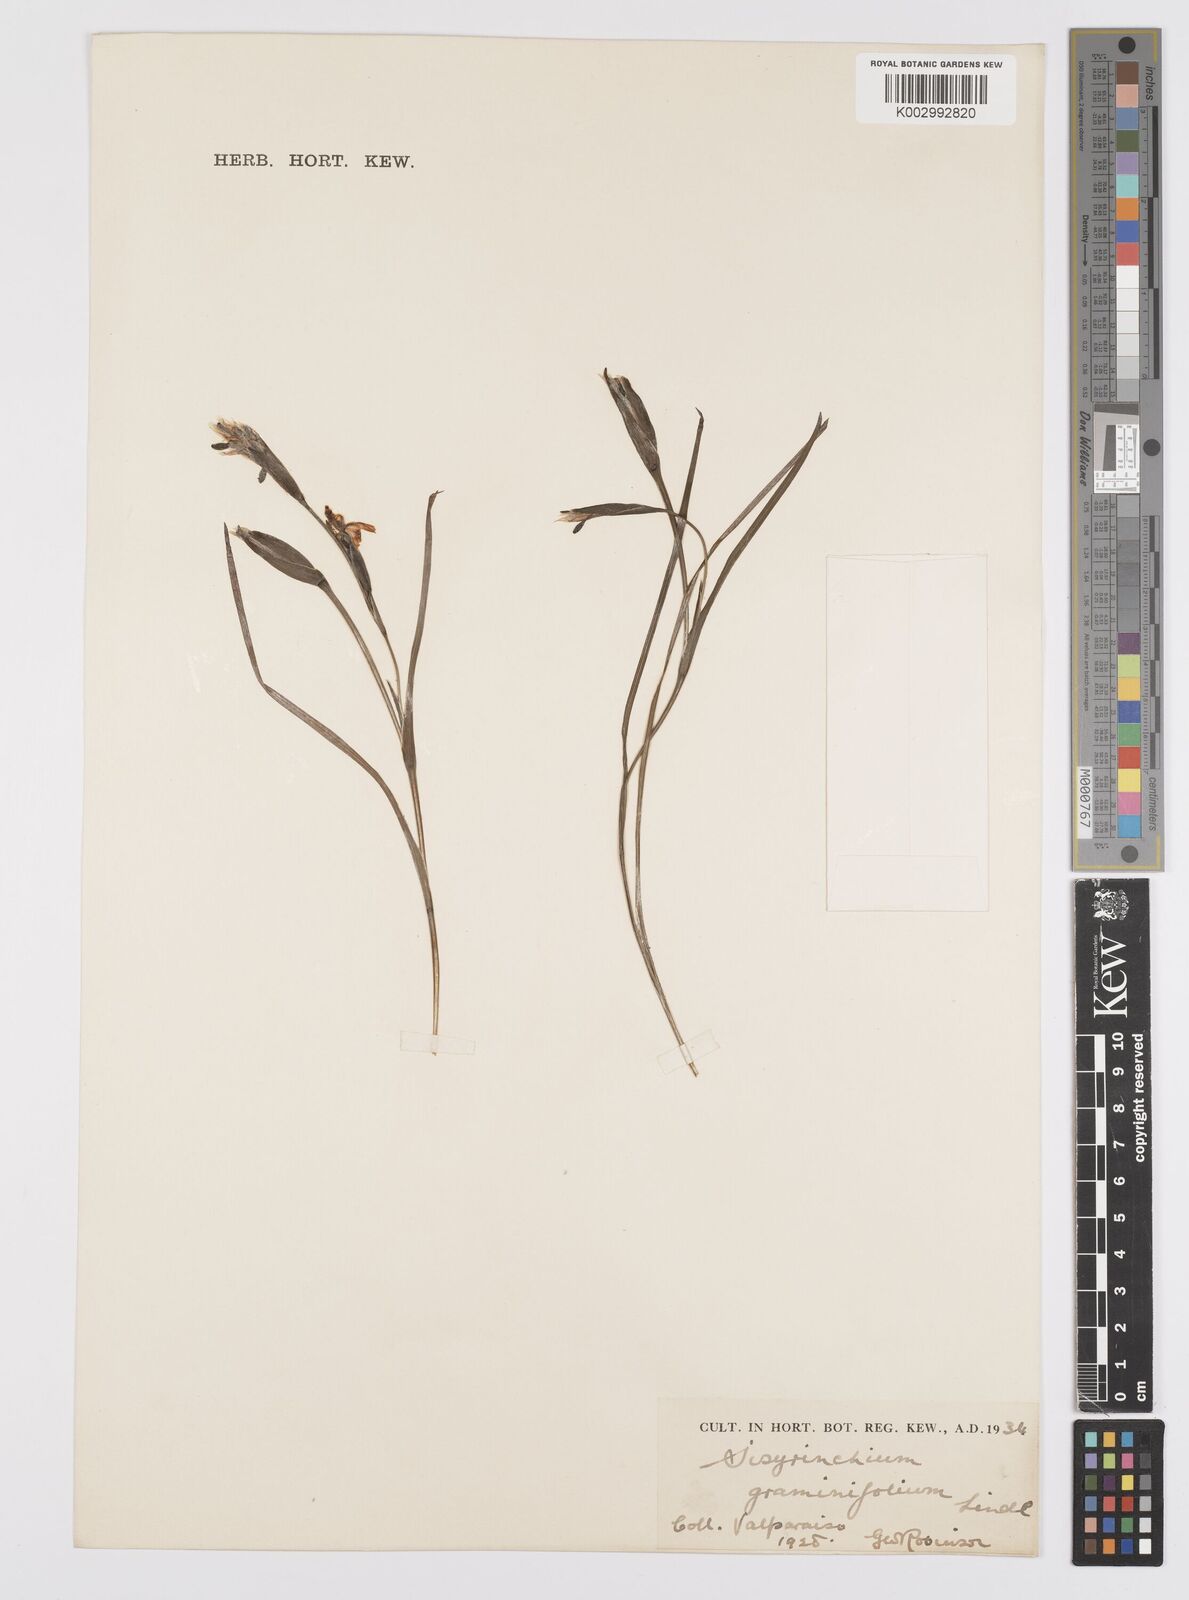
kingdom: Plantae
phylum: Tracheophyta
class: Liliopsida
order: Asparagales
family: Iridaceae
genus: Sisyrinchium
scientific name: Sisyrinchium graminifolium
